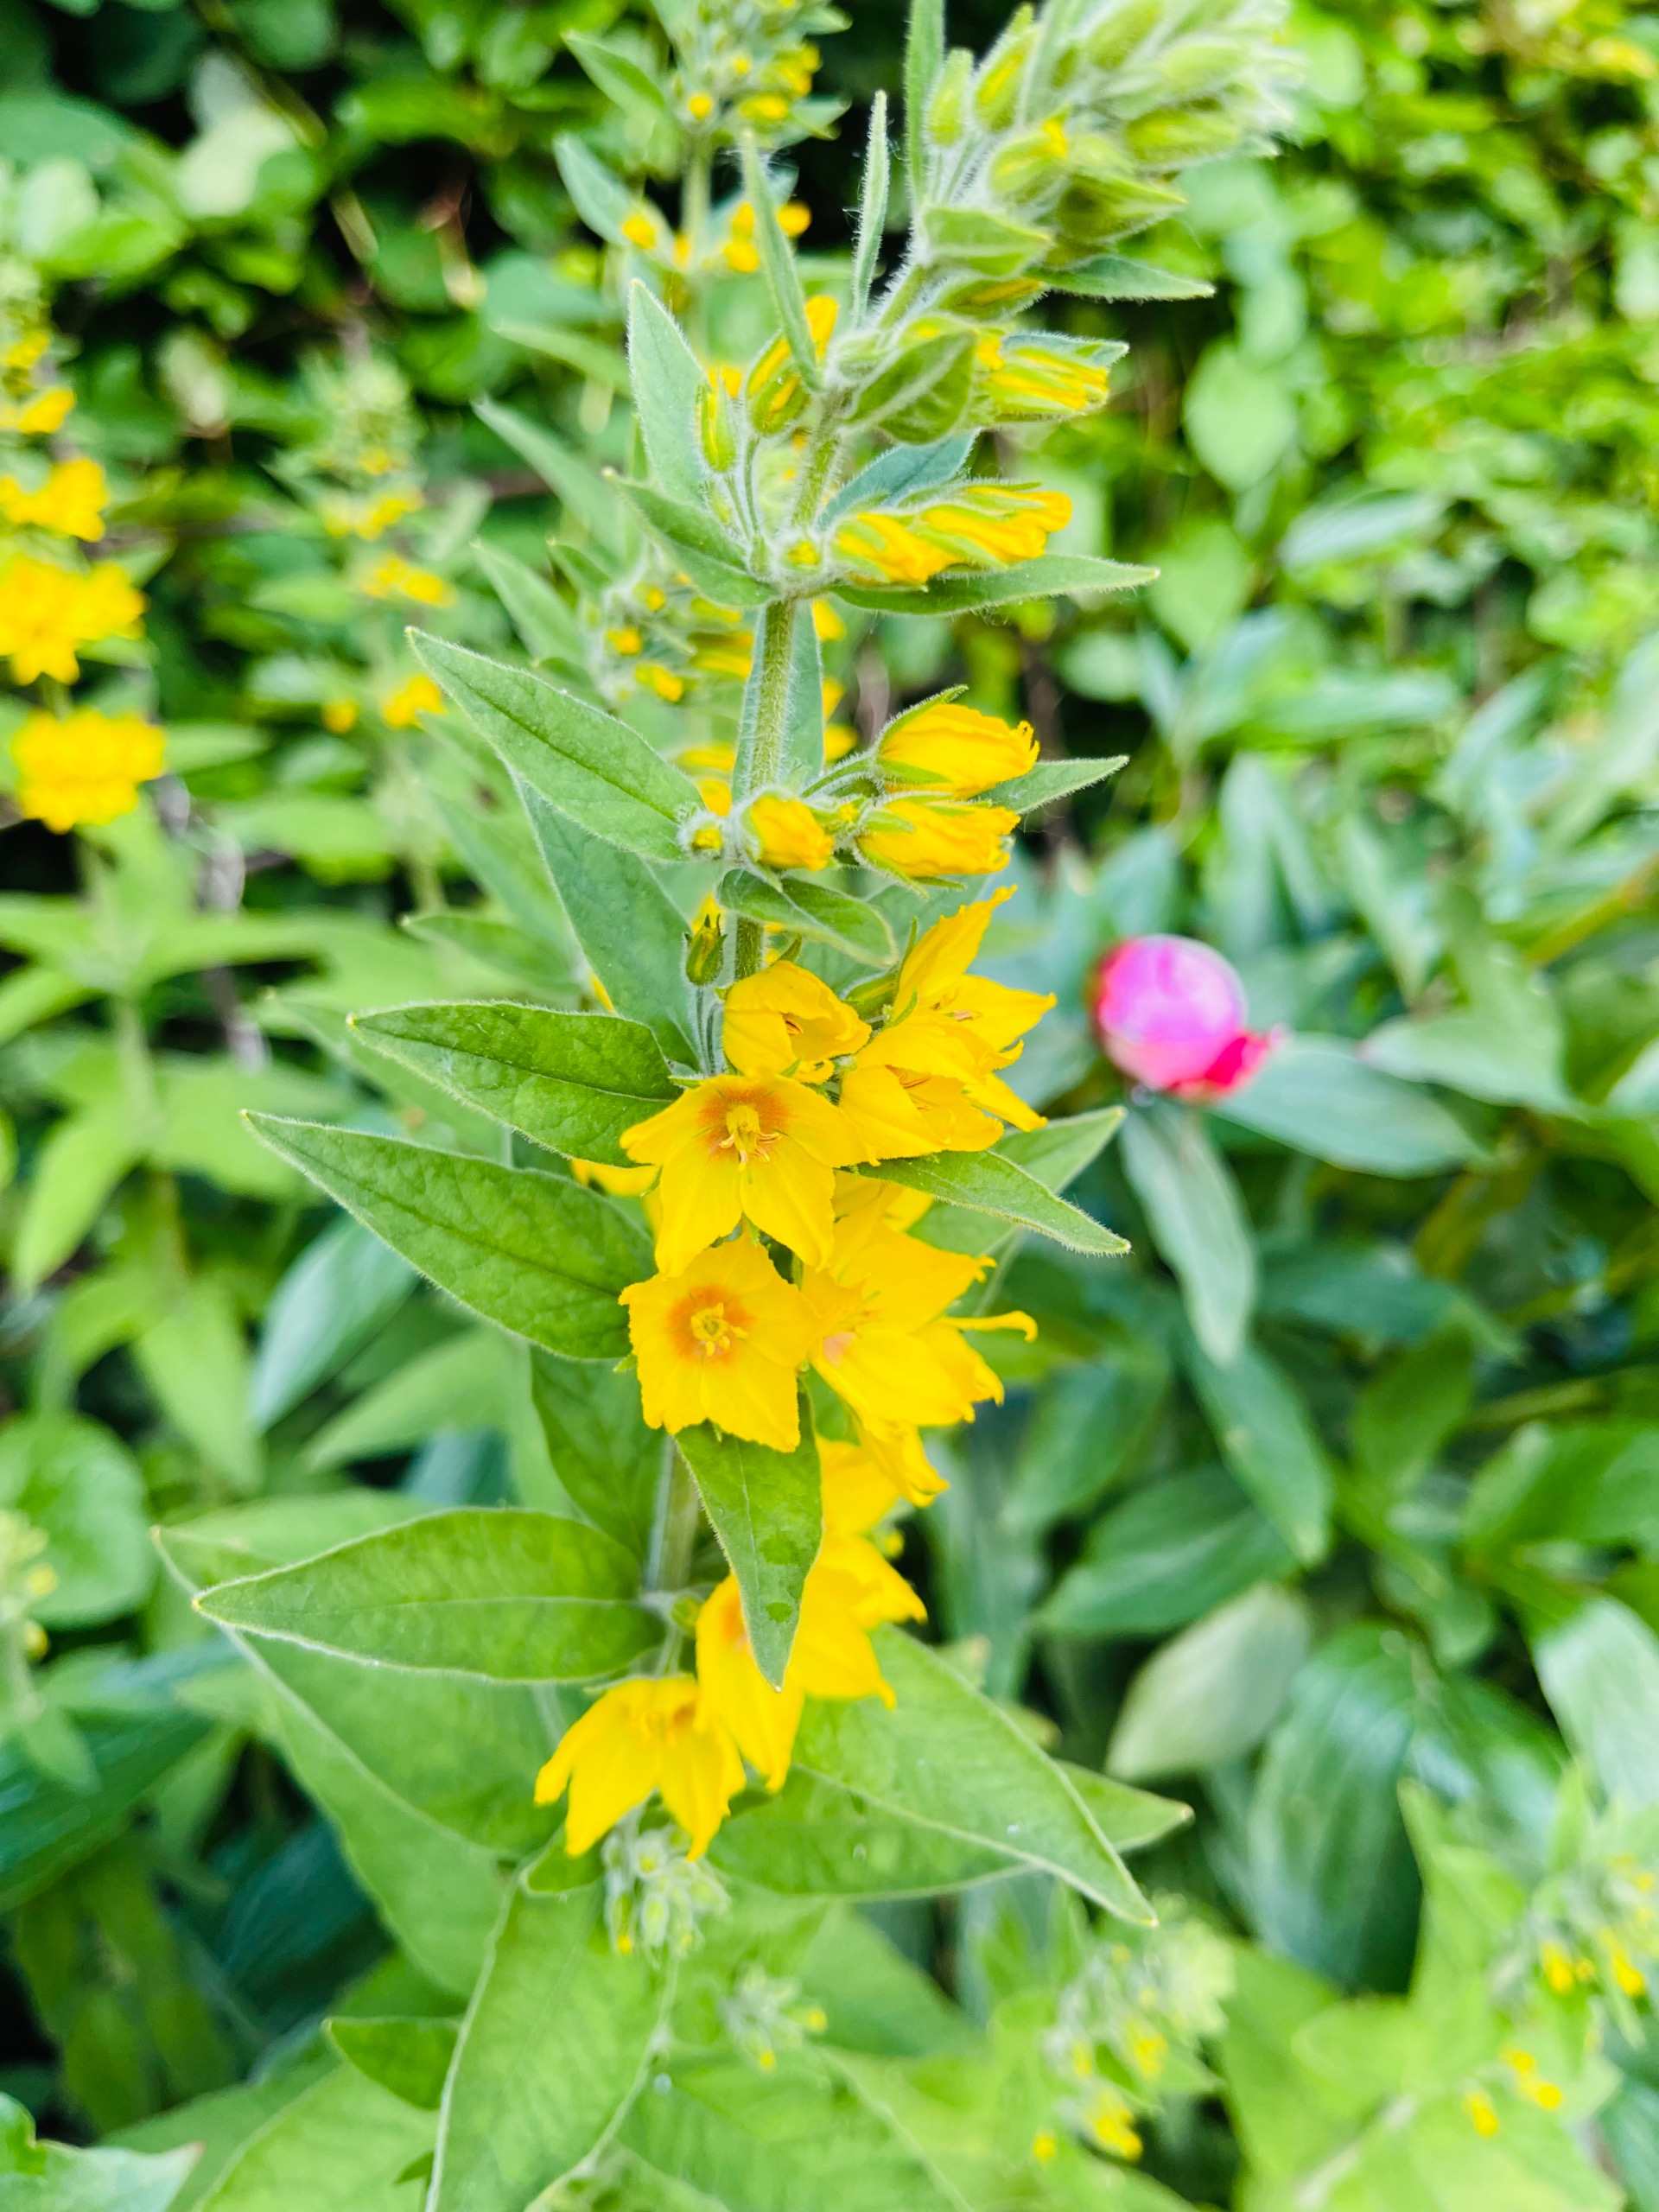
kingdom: Plantae
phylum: Tracheophyta
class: Magnoliopsida
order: Ericales
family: Primulaceae
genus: Lysimachia
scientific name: Lysimachia punctata
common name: Prikbladet fredløs
